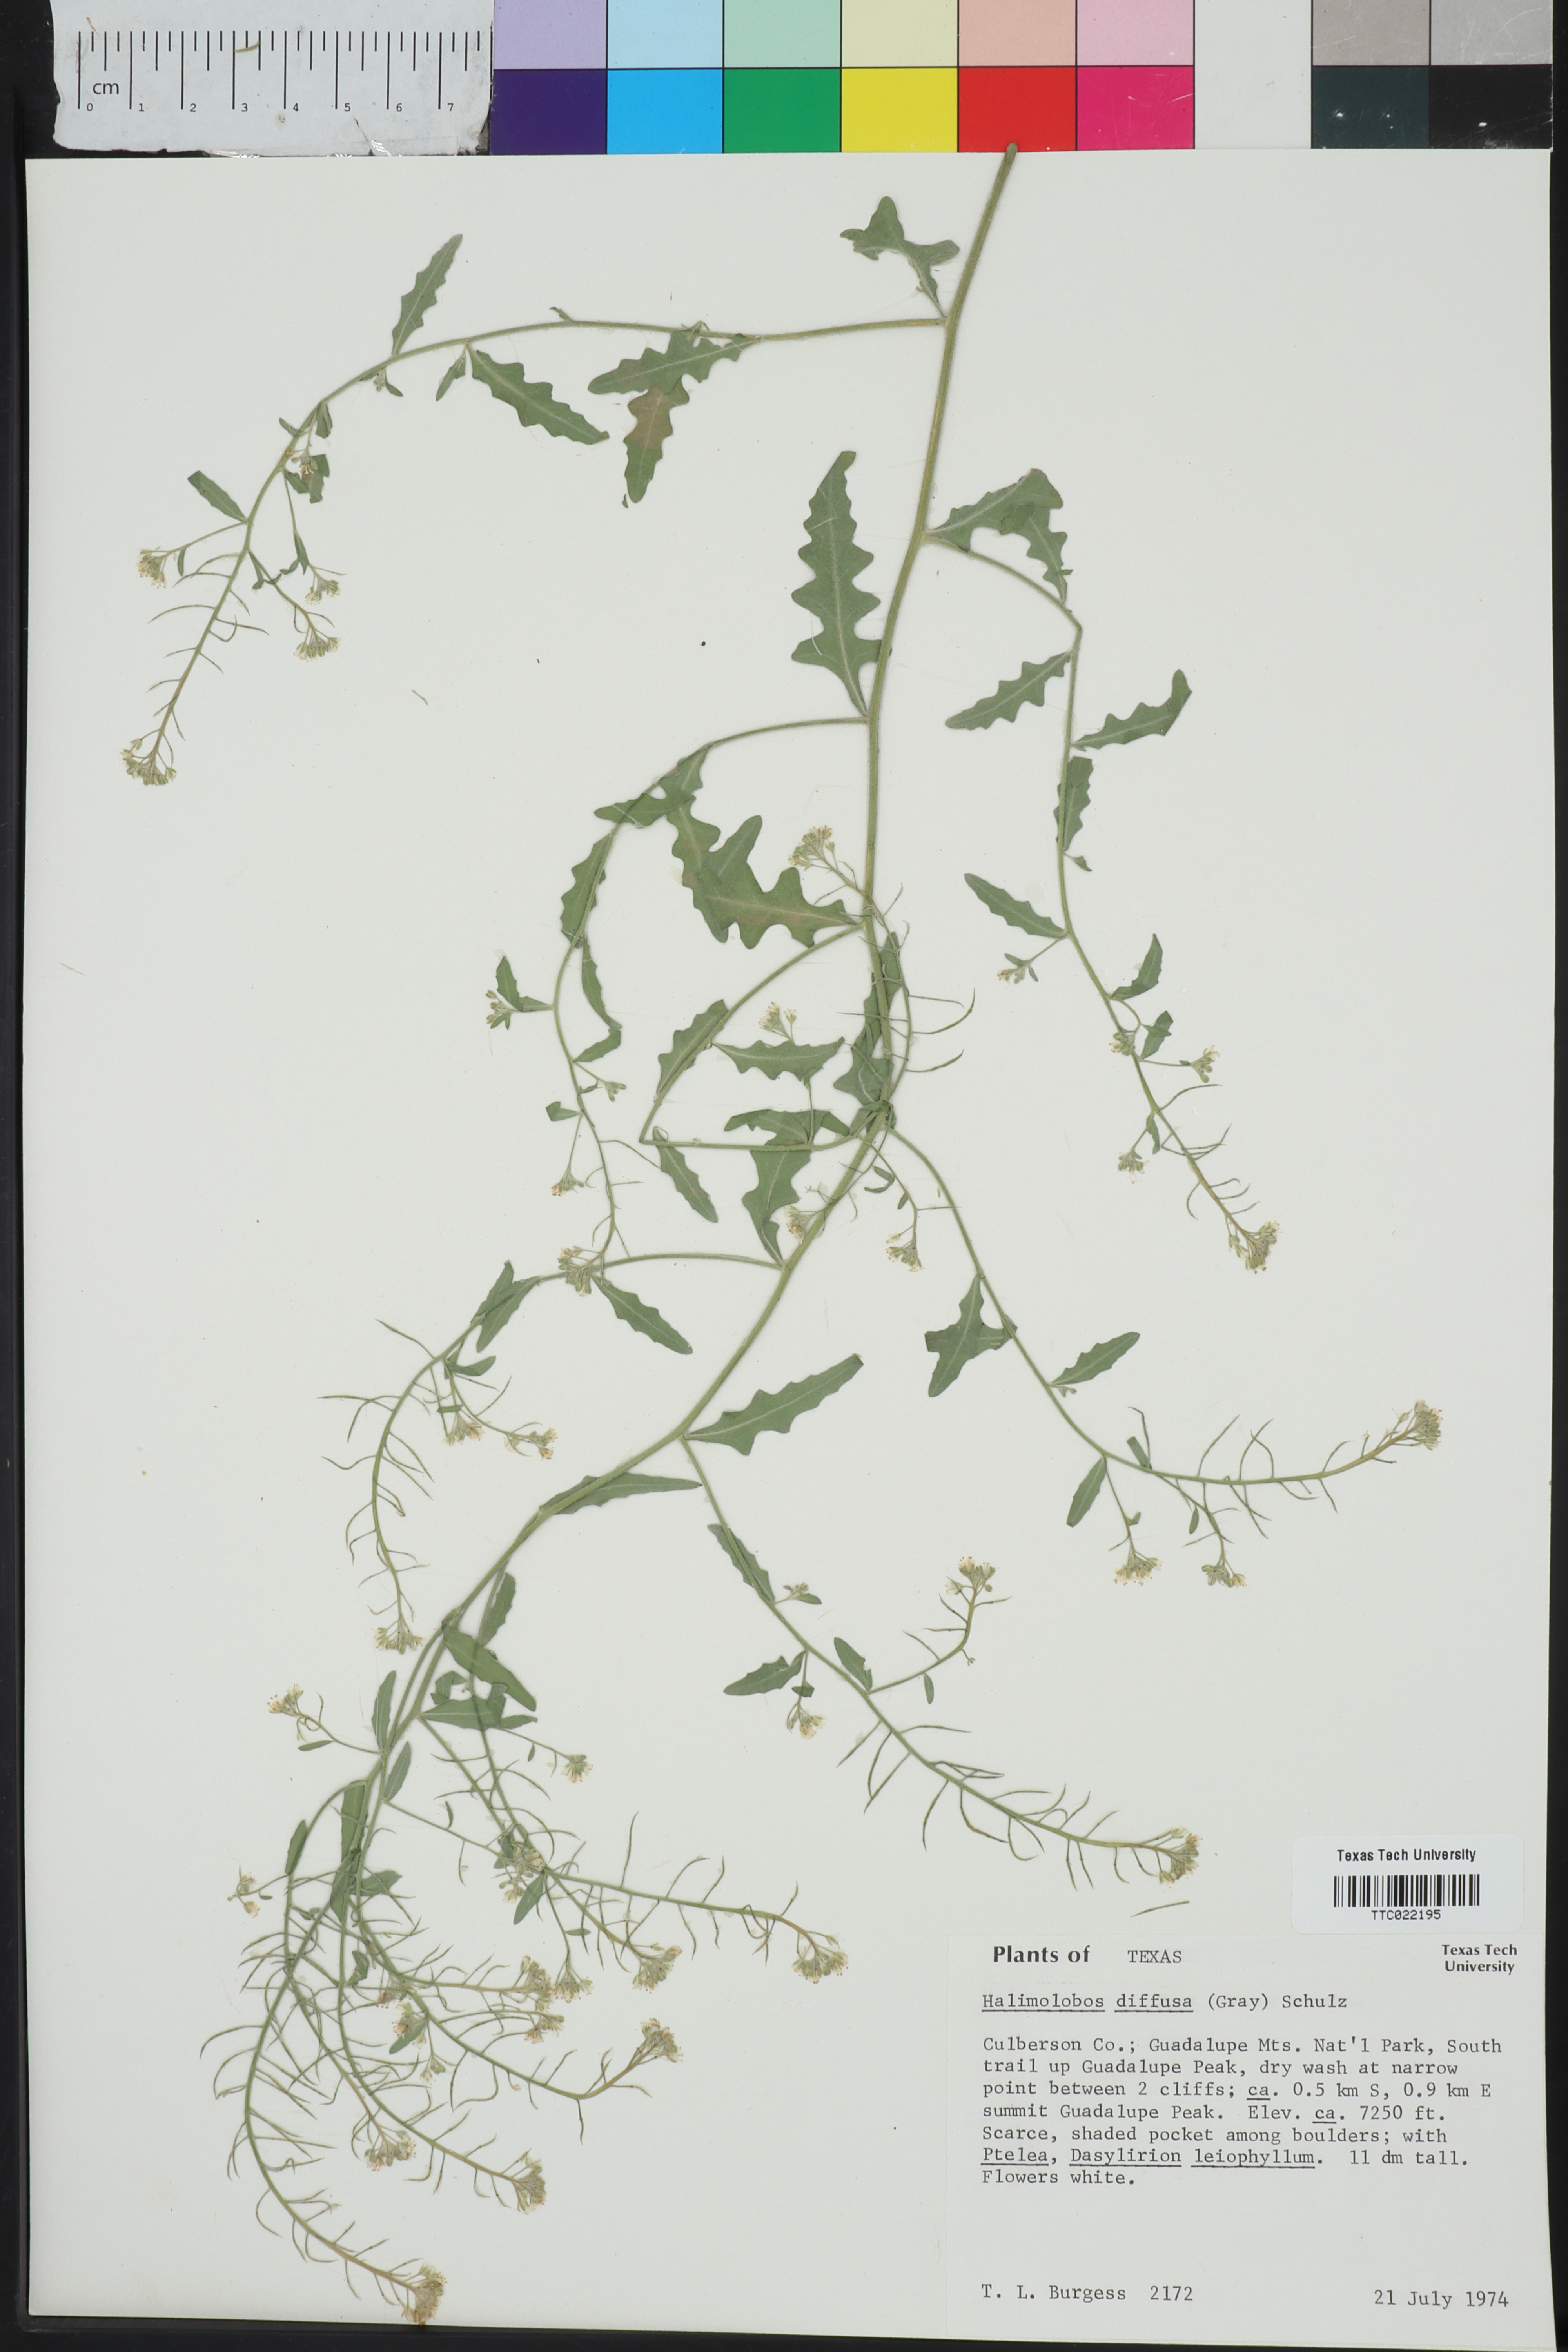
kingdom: Plantae
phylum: Tracheophyta
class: Magnoliopsida
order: Brassicales
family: Brassicaceae
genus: Halimolobos
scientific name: Halimolobos diffusus
